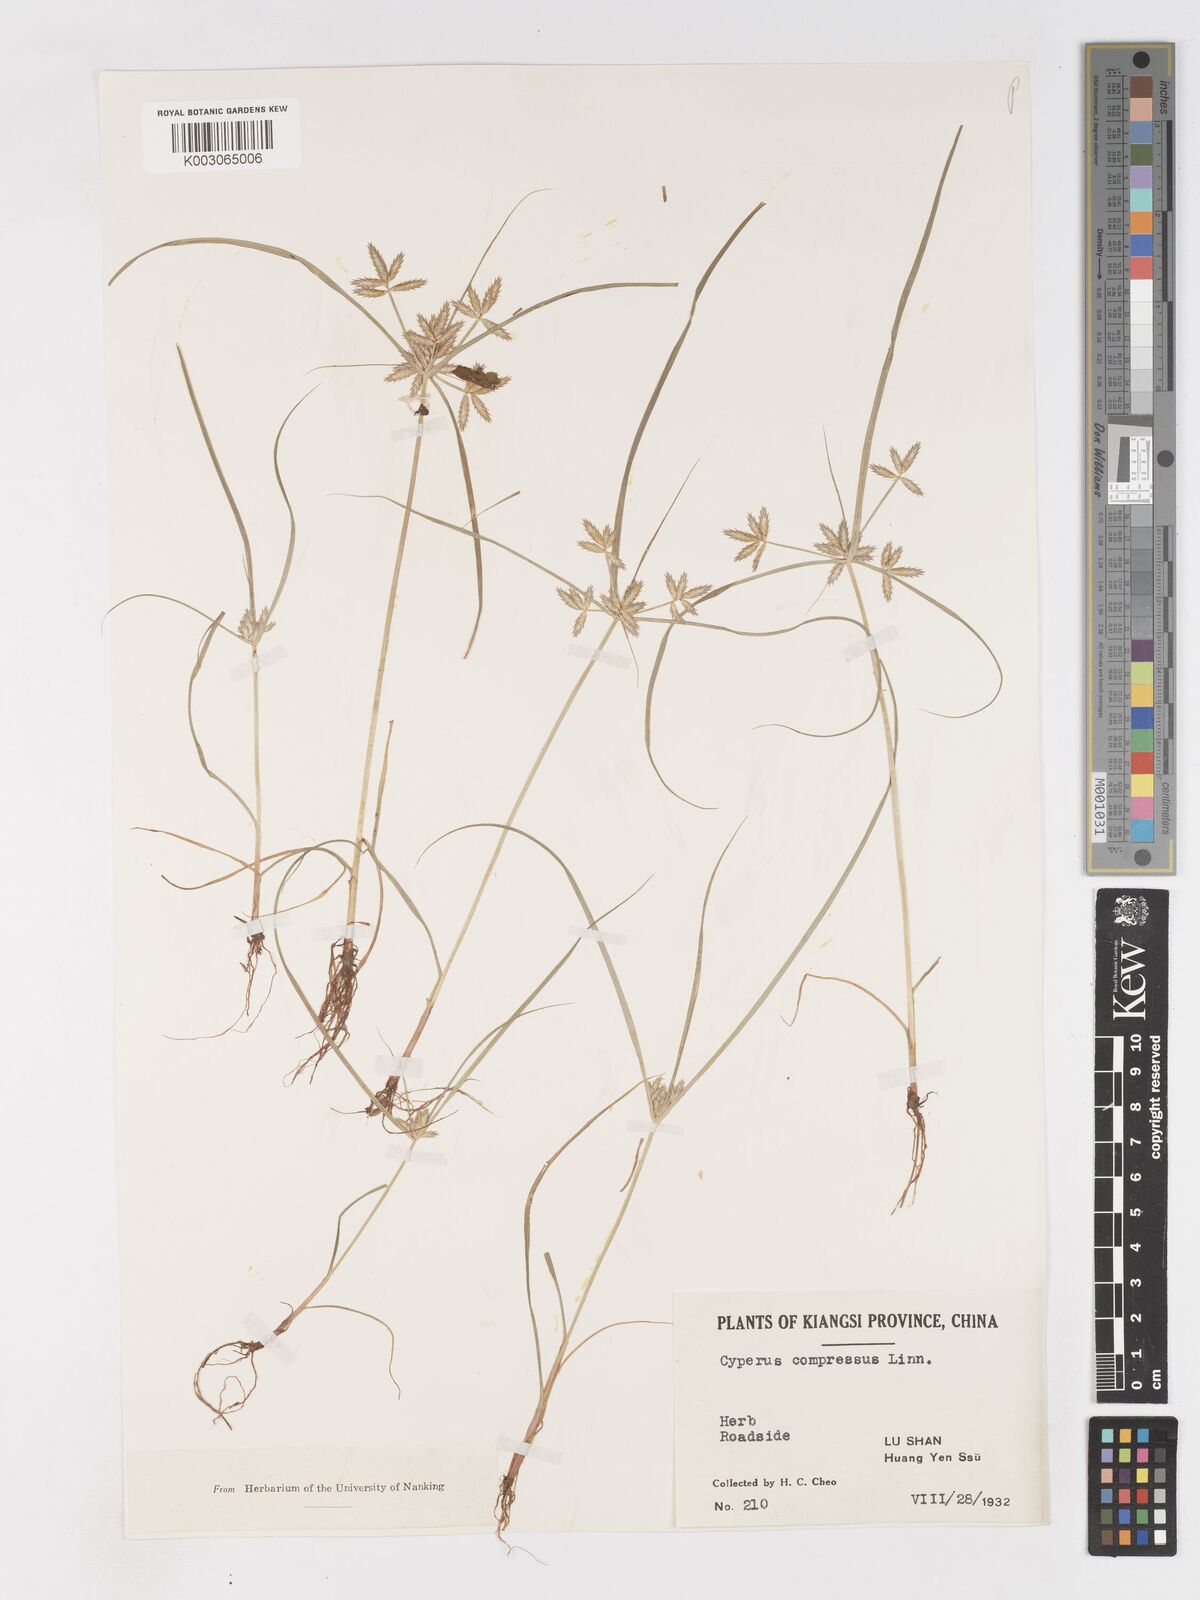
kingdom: Plantae
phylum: Tracheophyta
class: Liliopsida
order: Poales
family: Cyperaceae
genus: Cyperus
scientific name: Cyperus compressus
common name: Poorland flatsedge
